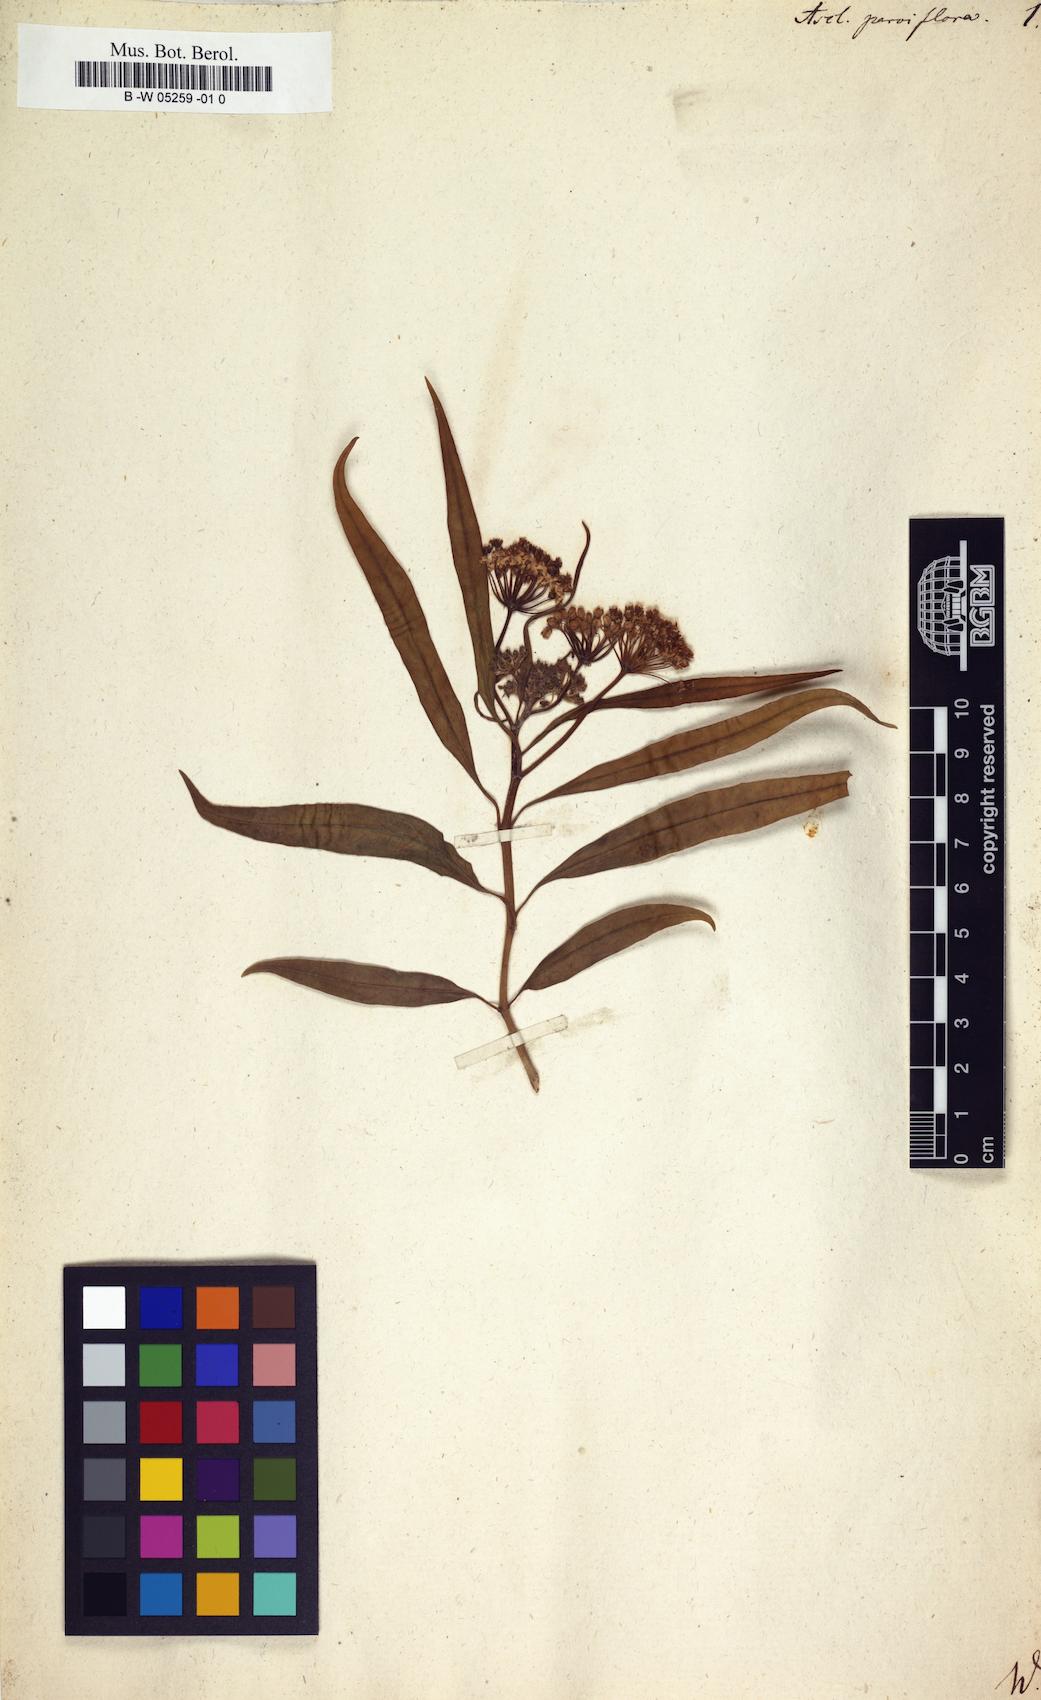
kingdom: Plantae
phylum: Tracheophyta
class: Magnoliopsida
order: Gentianales
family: Apocynaceae
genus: Asclepias
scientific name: Asclepias perennis
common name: Smooth-seed milkweed
